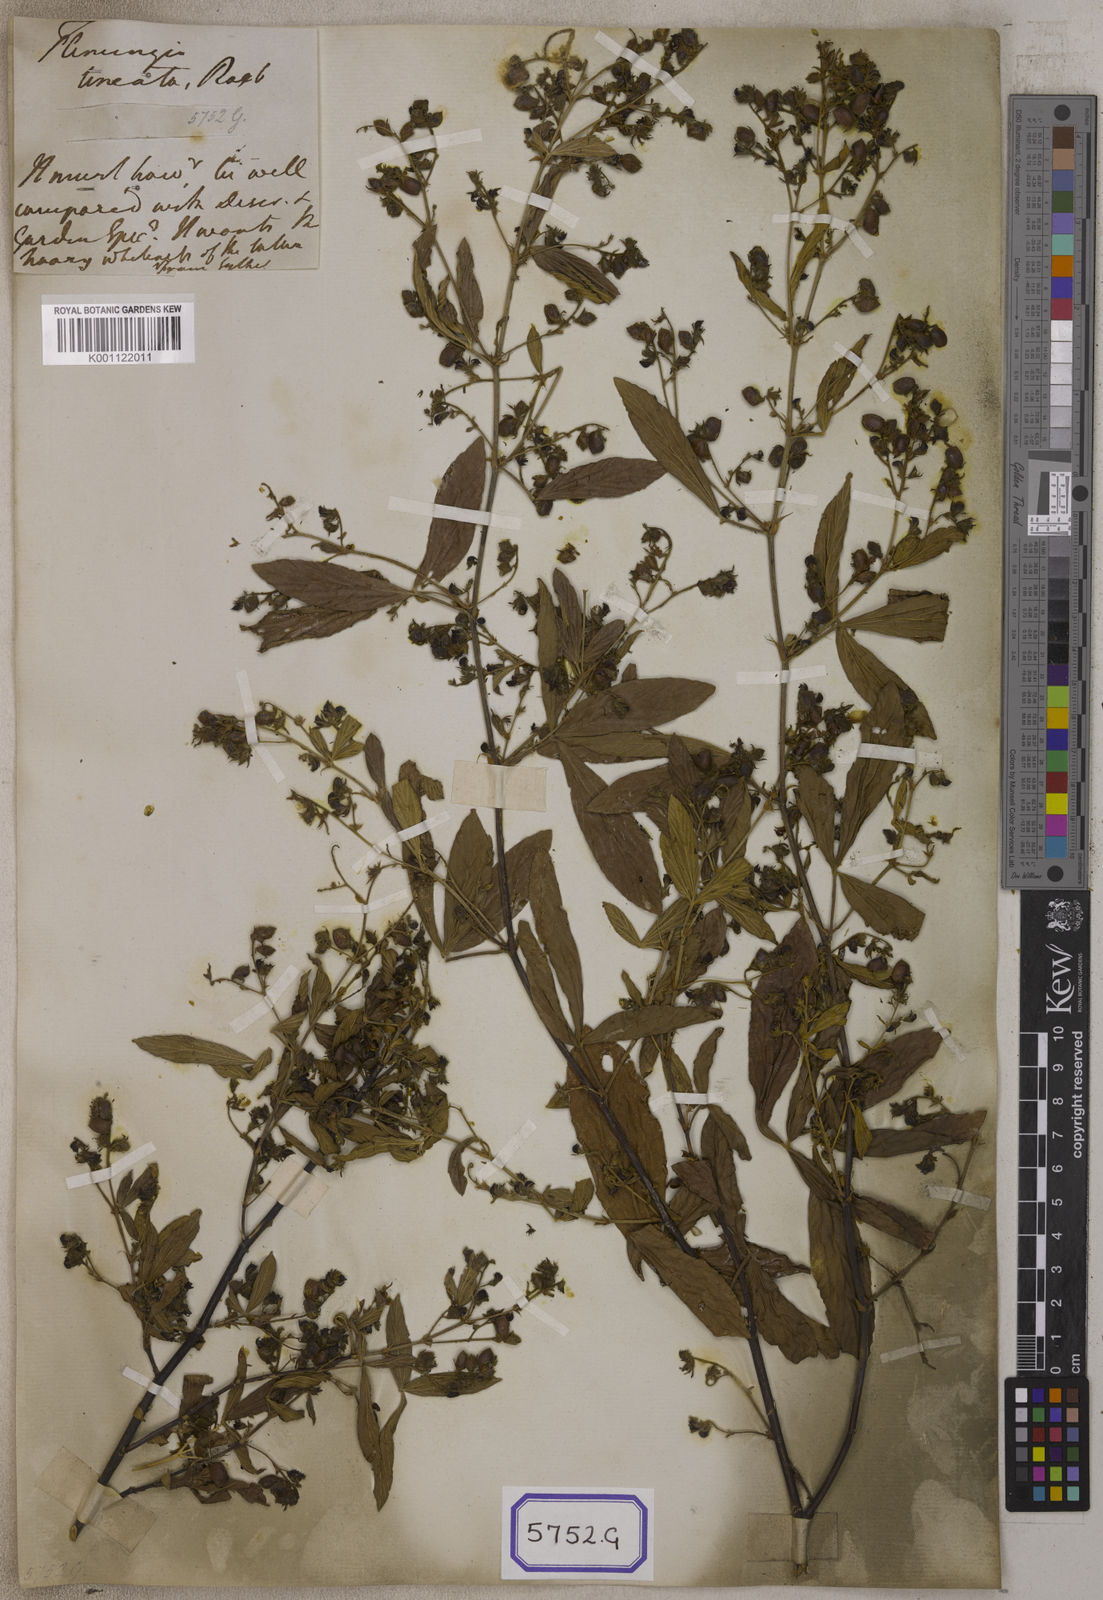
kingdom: Plantae
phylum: Tracheophyta
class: Magnoliopsida
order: Fabales
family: Fabaceae
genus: Flemingia
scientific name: Flemingia lineata
